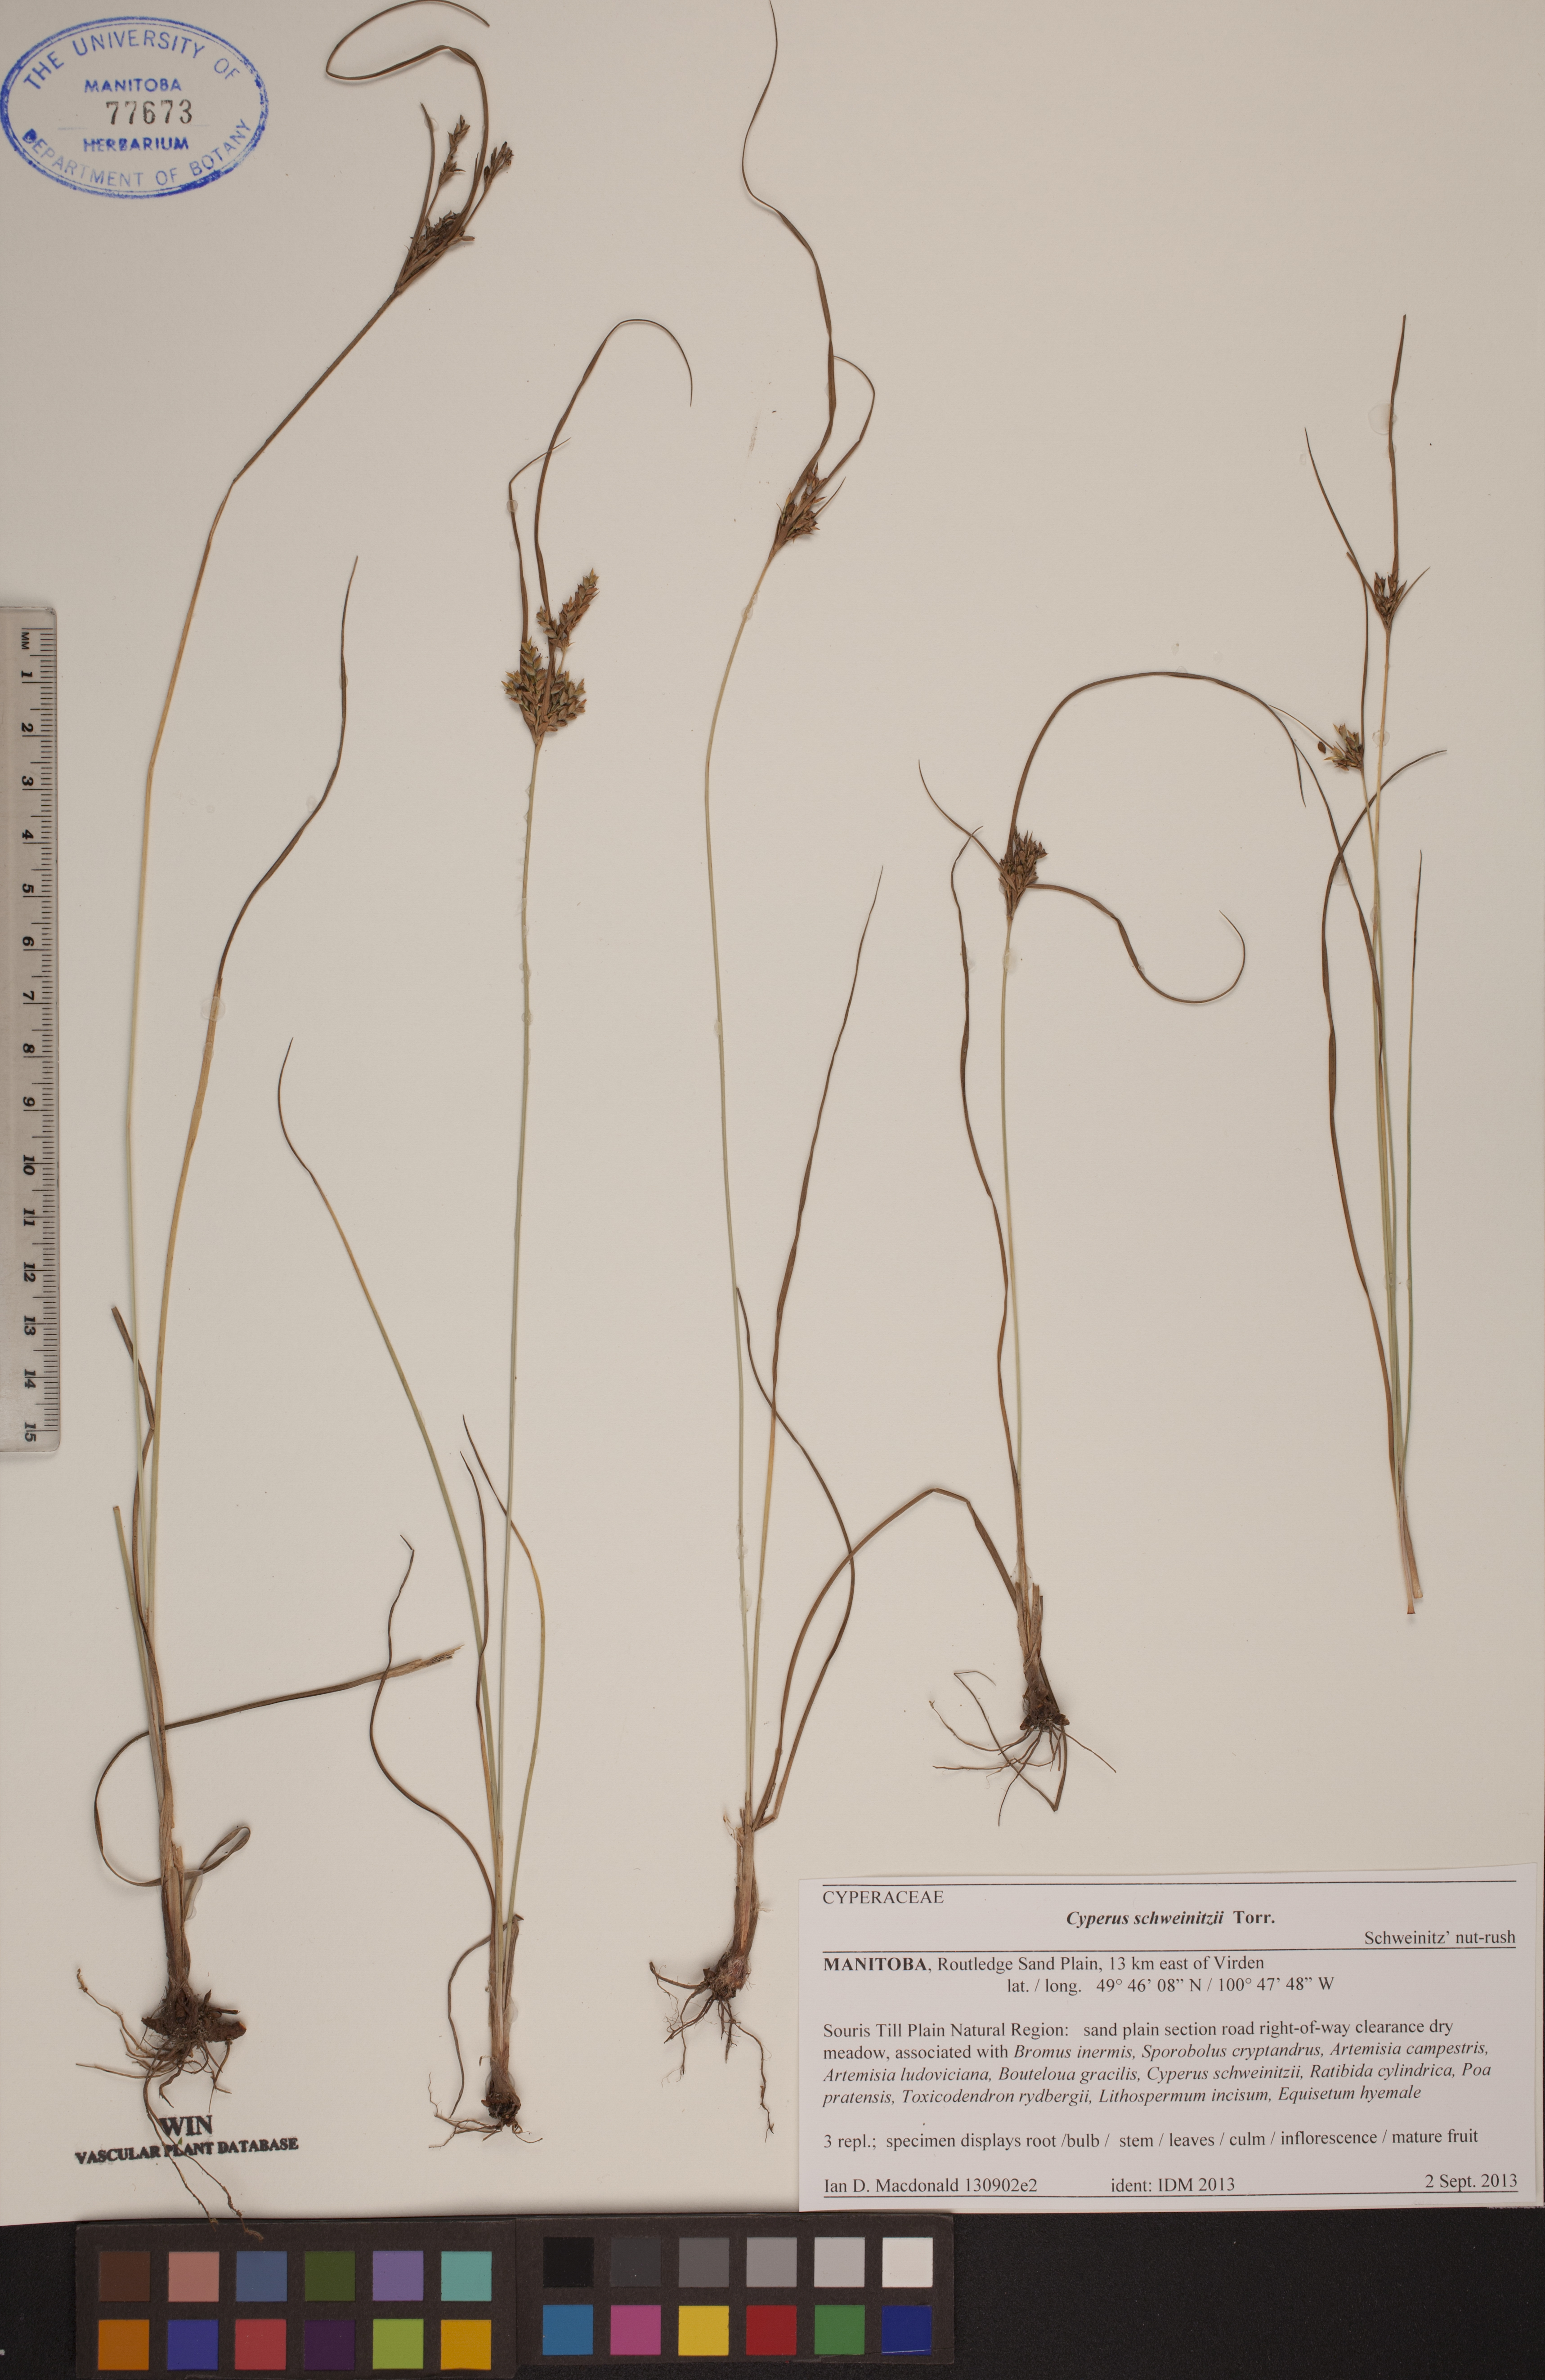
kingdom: Plantae
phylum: Tracheophyta
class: Liliopsida
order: Poales
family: Cyperaceae
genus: Cyperus
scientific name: Cyperus schweinitzii
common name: Schweinitz's cyperus
